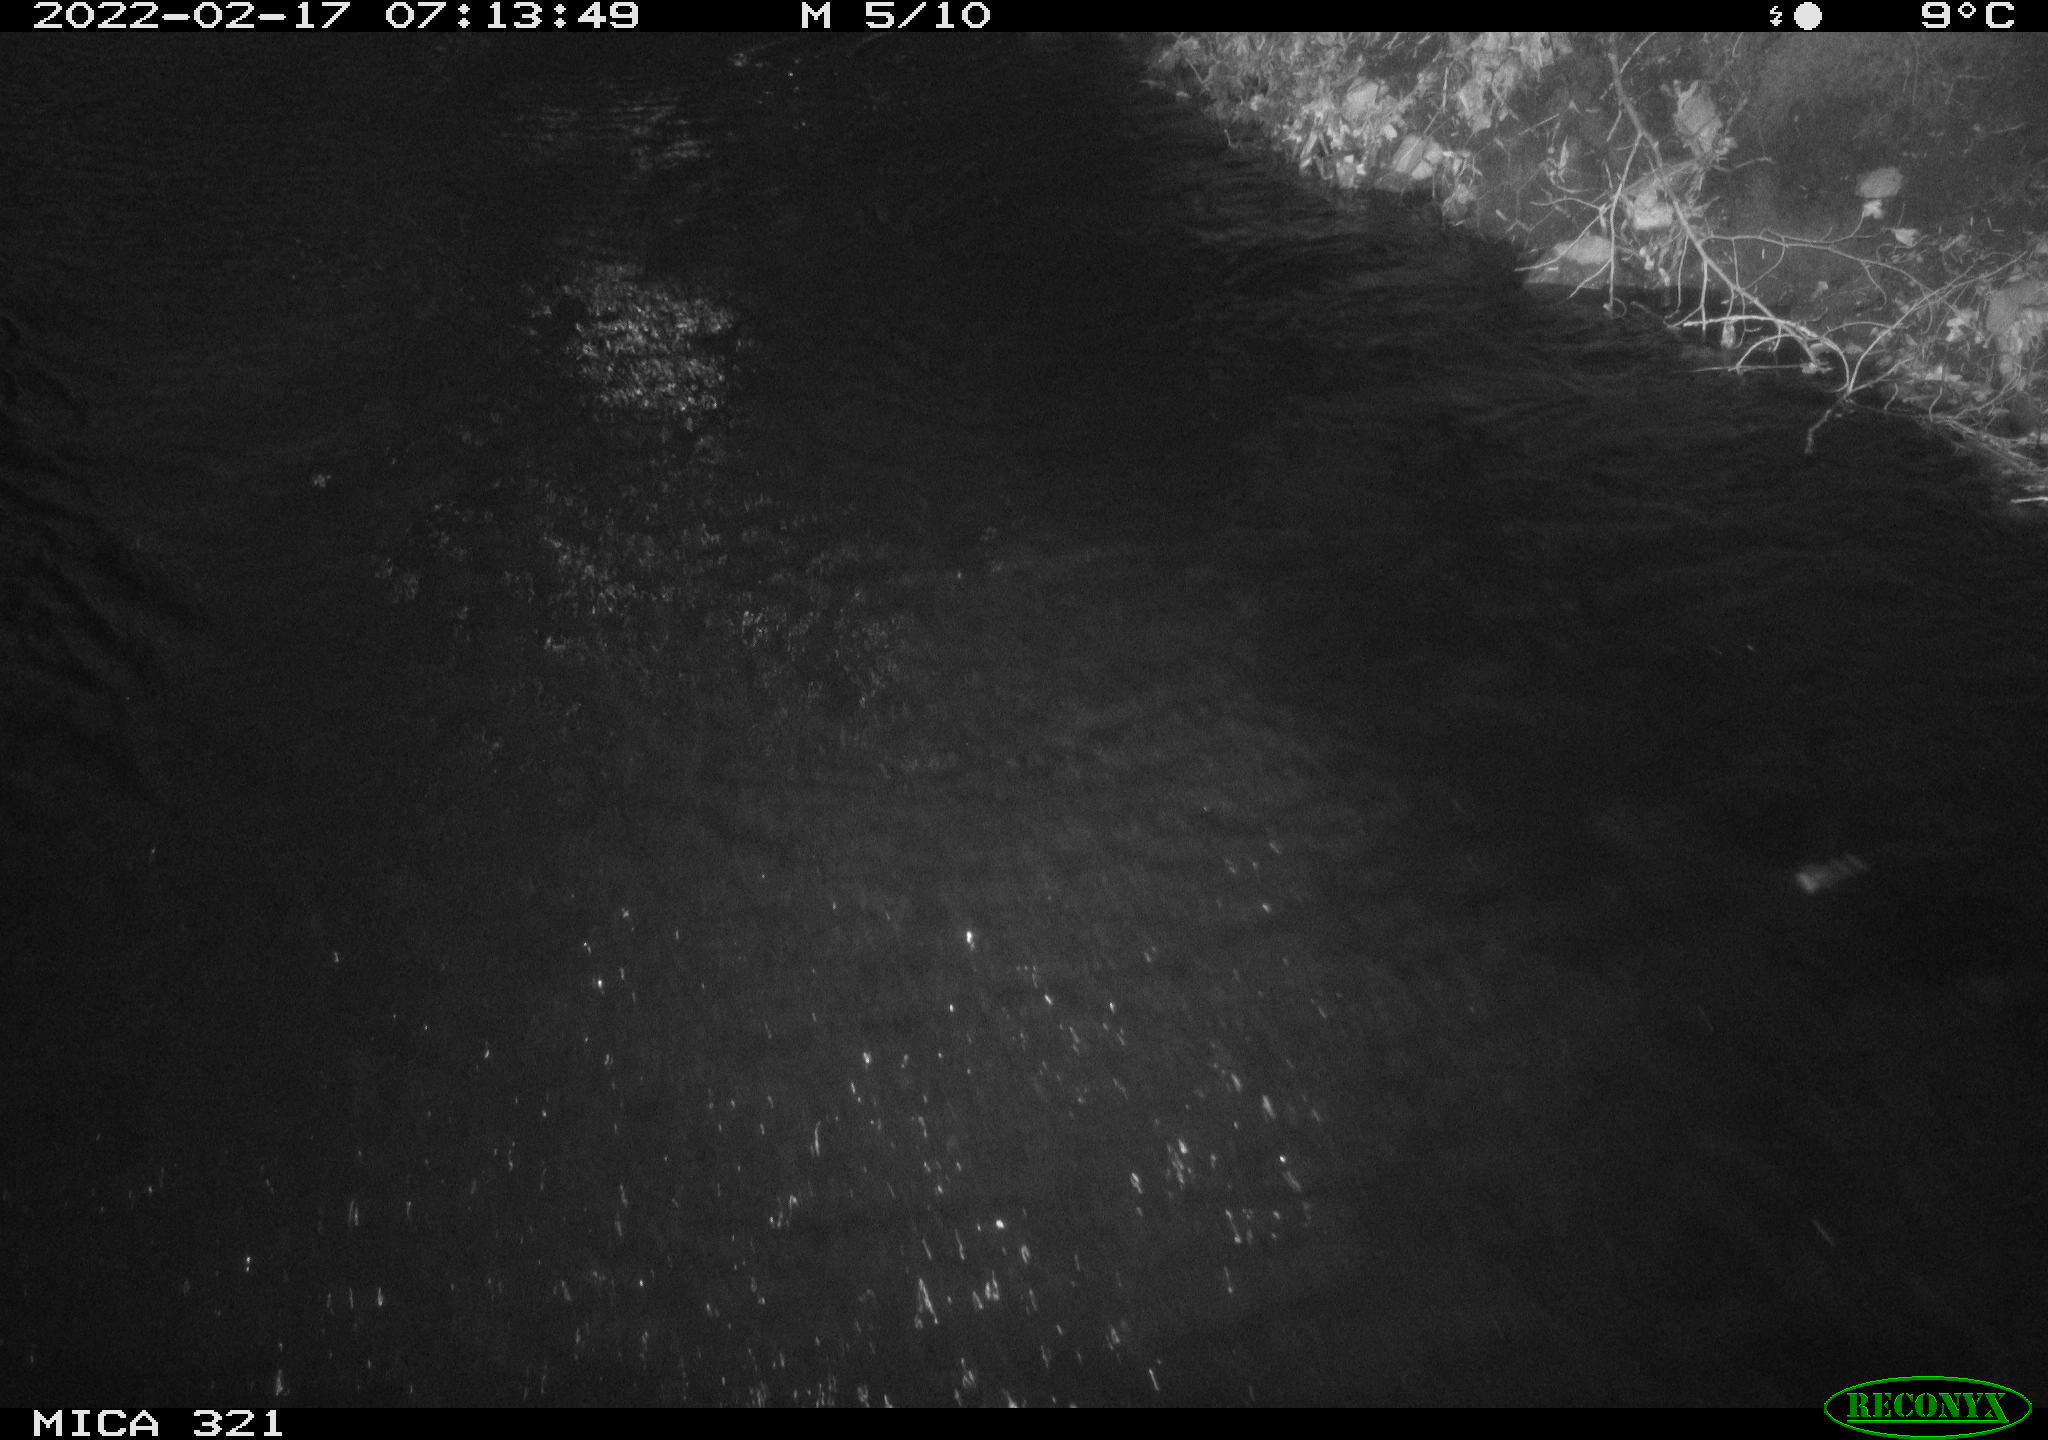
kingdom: Animalia
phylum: Chordata
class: Aves
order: Anseriformes
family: Anatidae
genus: Anas
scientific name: Anas platyrhynchos
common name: Mallard
